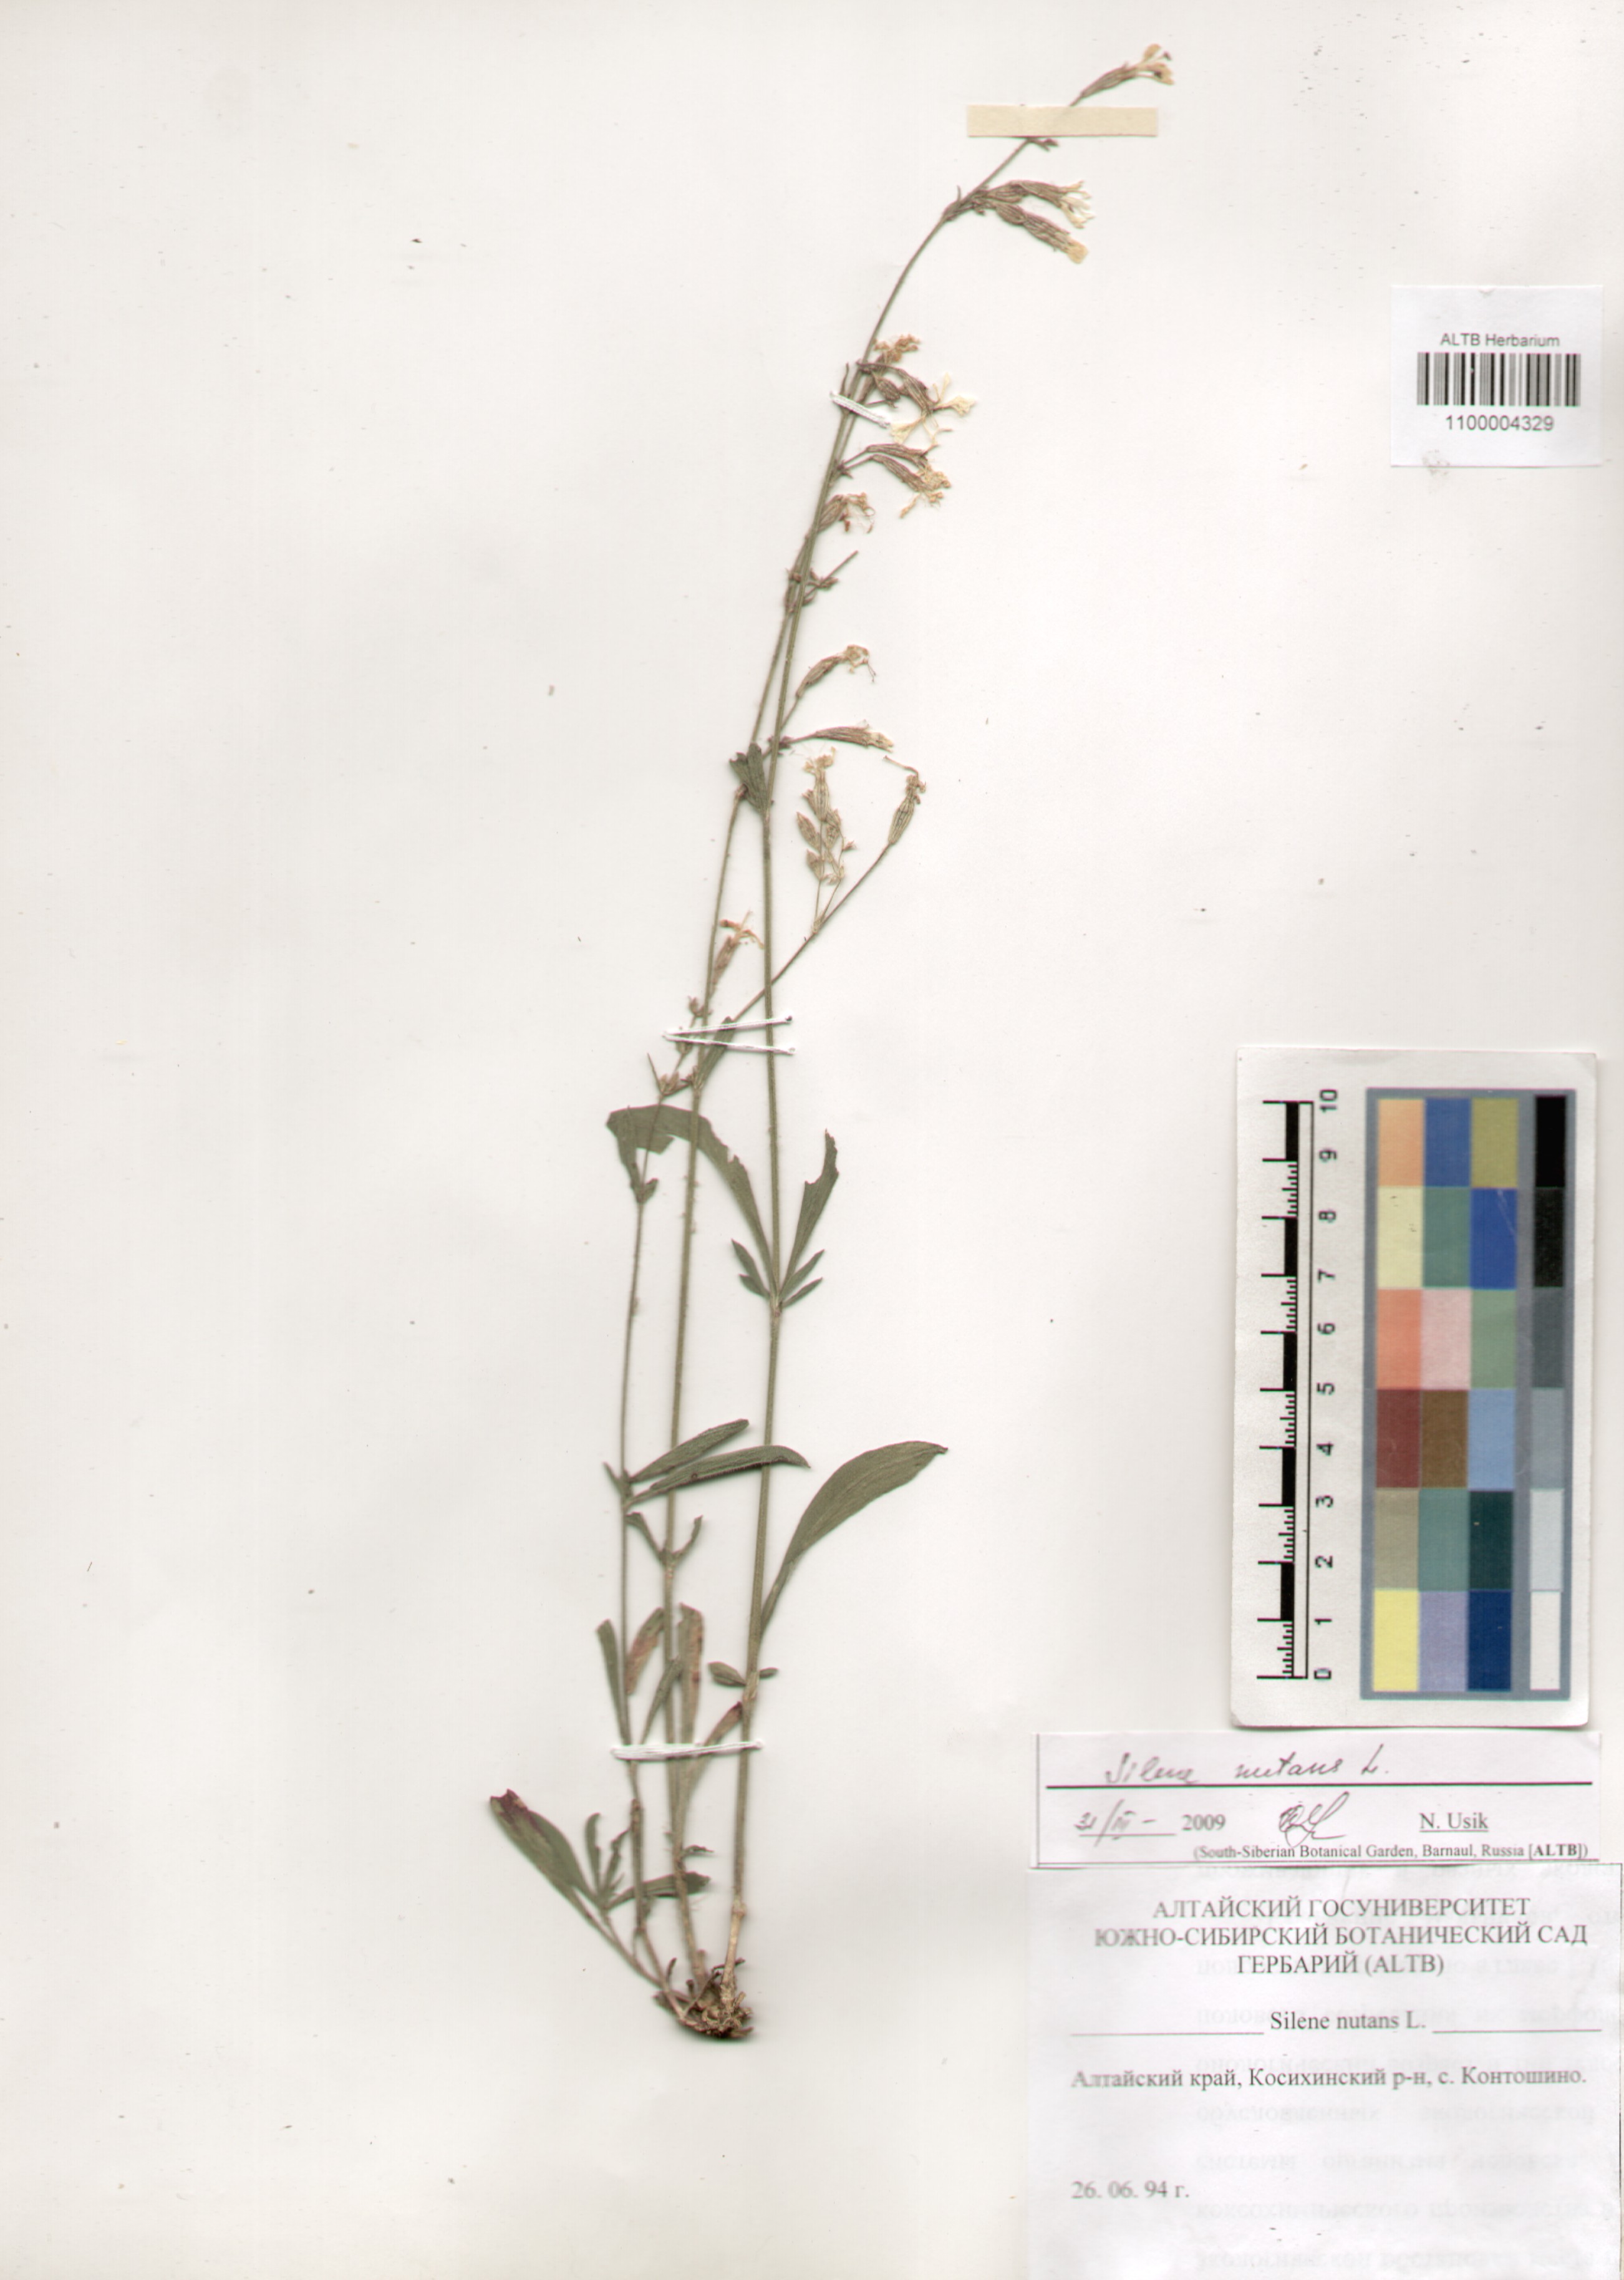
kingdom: Plantae
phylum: Tracheophyta
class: Magnoliopsida
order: Caryophyllales
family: Caryophyllaceae
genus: Silene
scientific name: Silene nutans
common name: Nottingham catchfly
